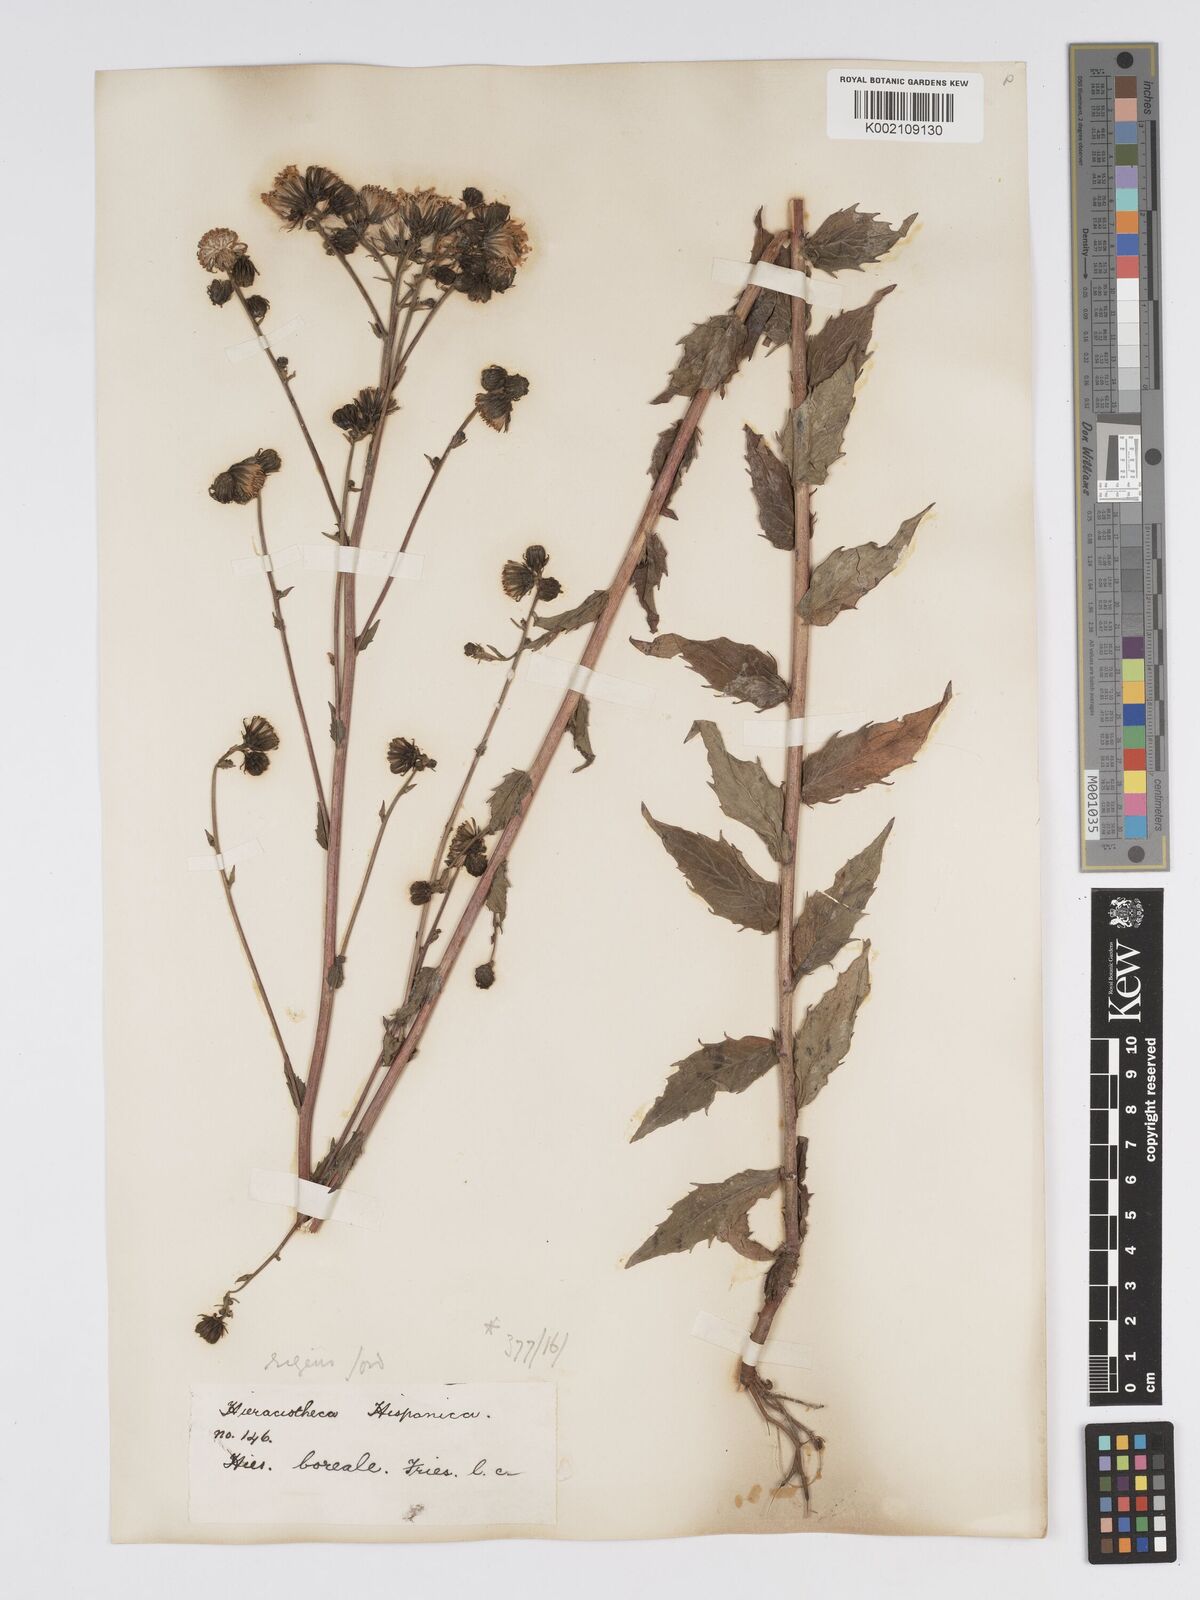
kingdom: Plantae
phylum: Tracheophyta
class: Magnoliopsida
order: Asterales
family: Asteraceae
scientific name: Asteraceae
